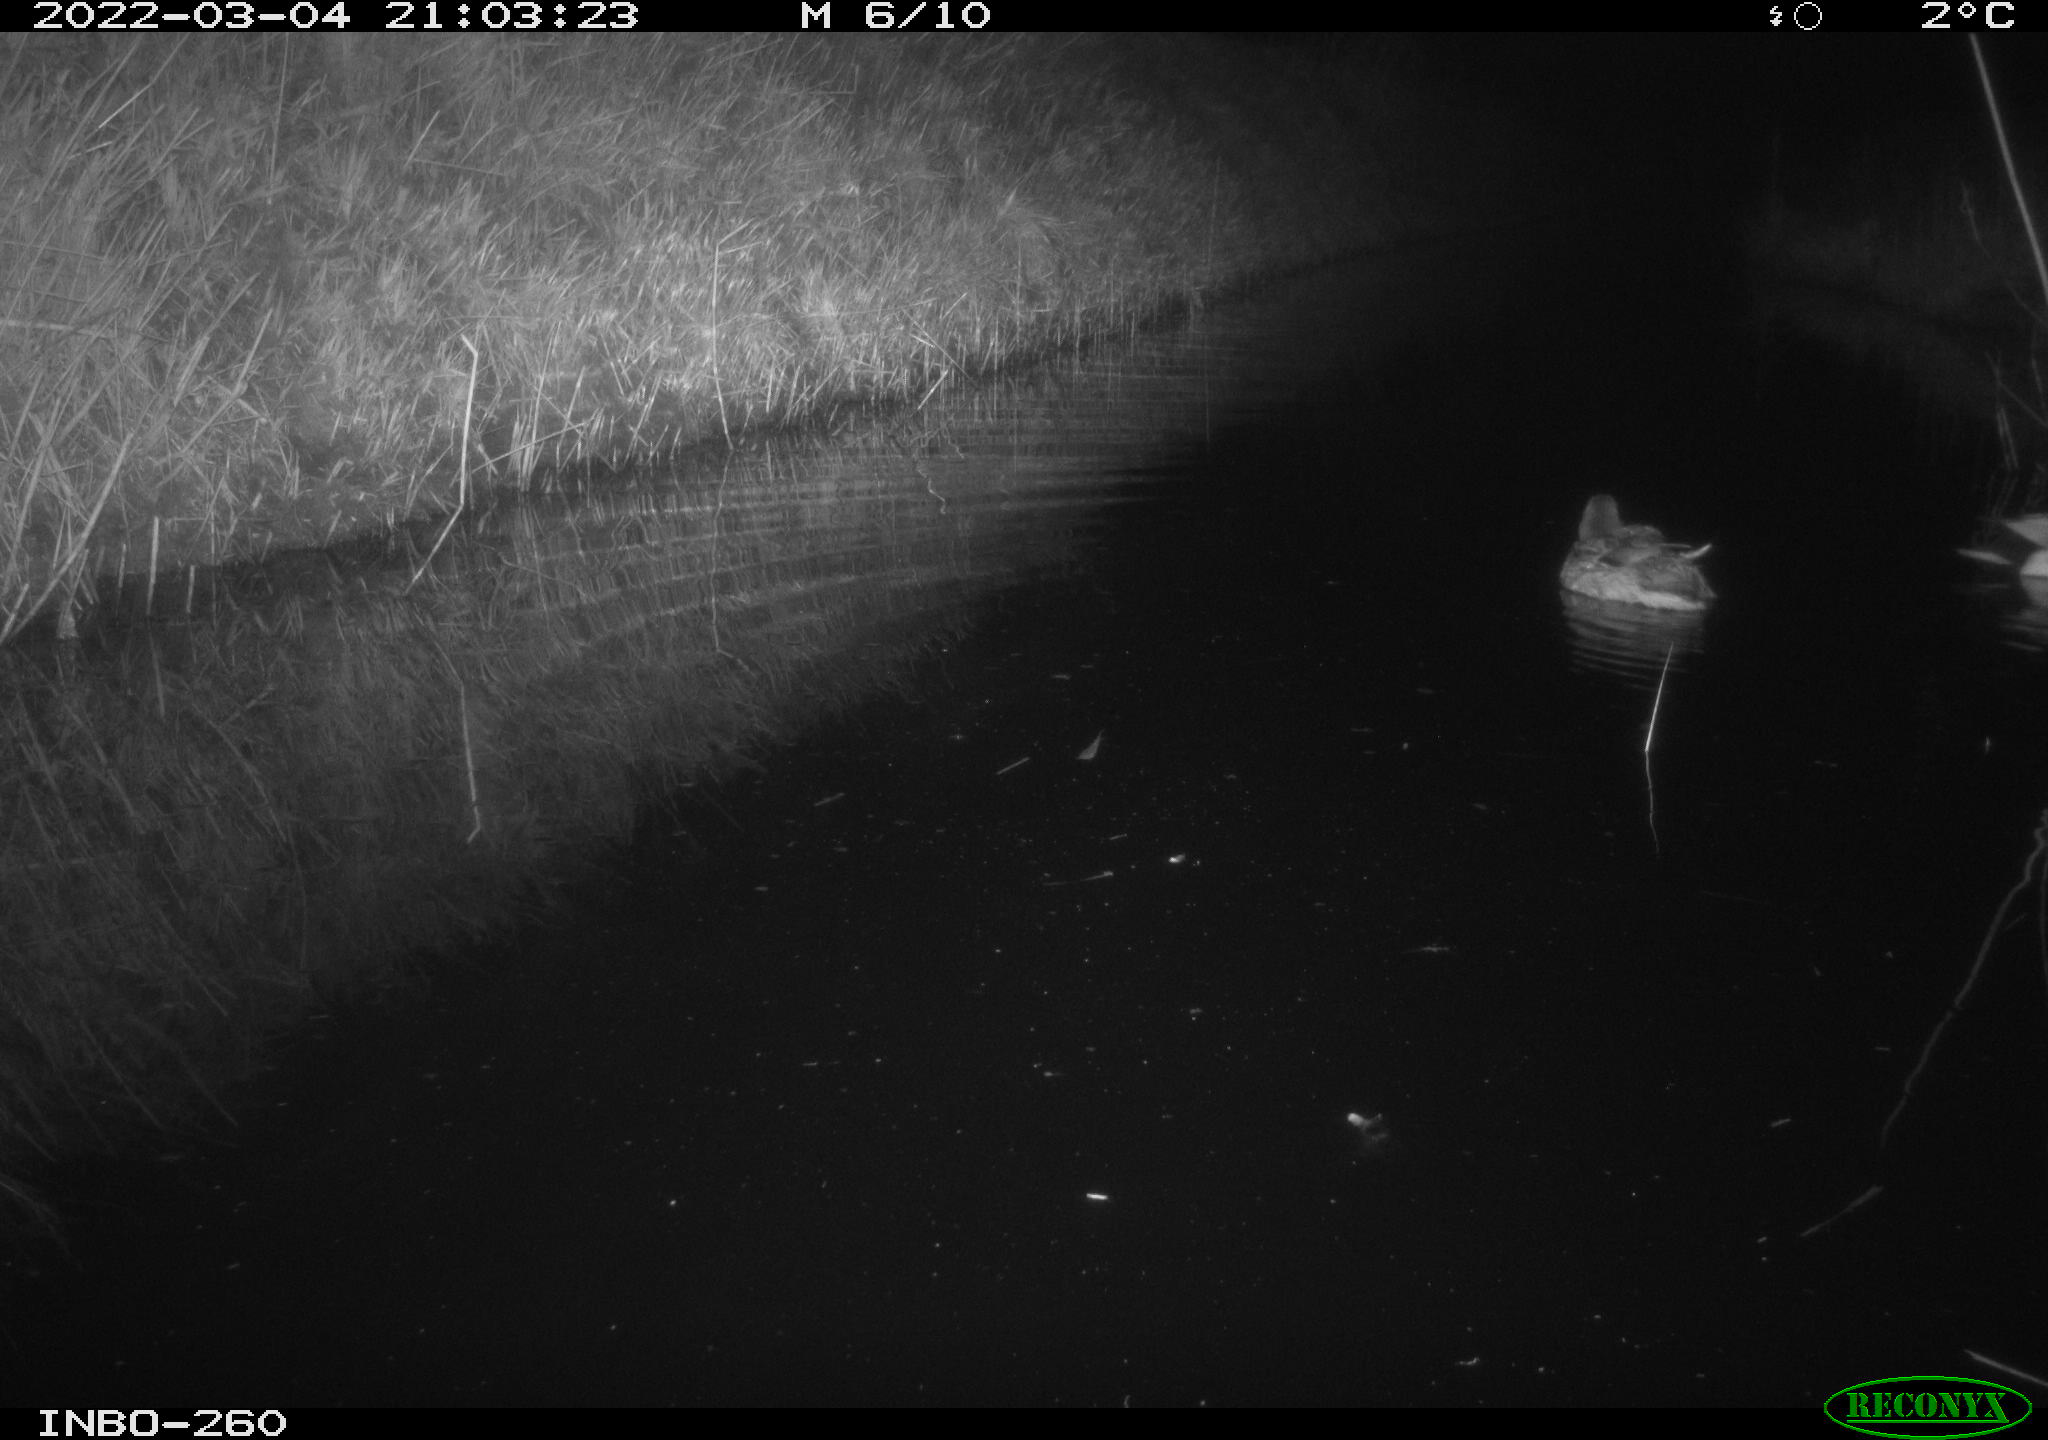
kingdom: Animalia
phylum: Chordata
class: Aves
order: Anseriformes
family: Anatidae
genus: Anas
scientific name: Anas platyrhynchos
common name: Mallard
